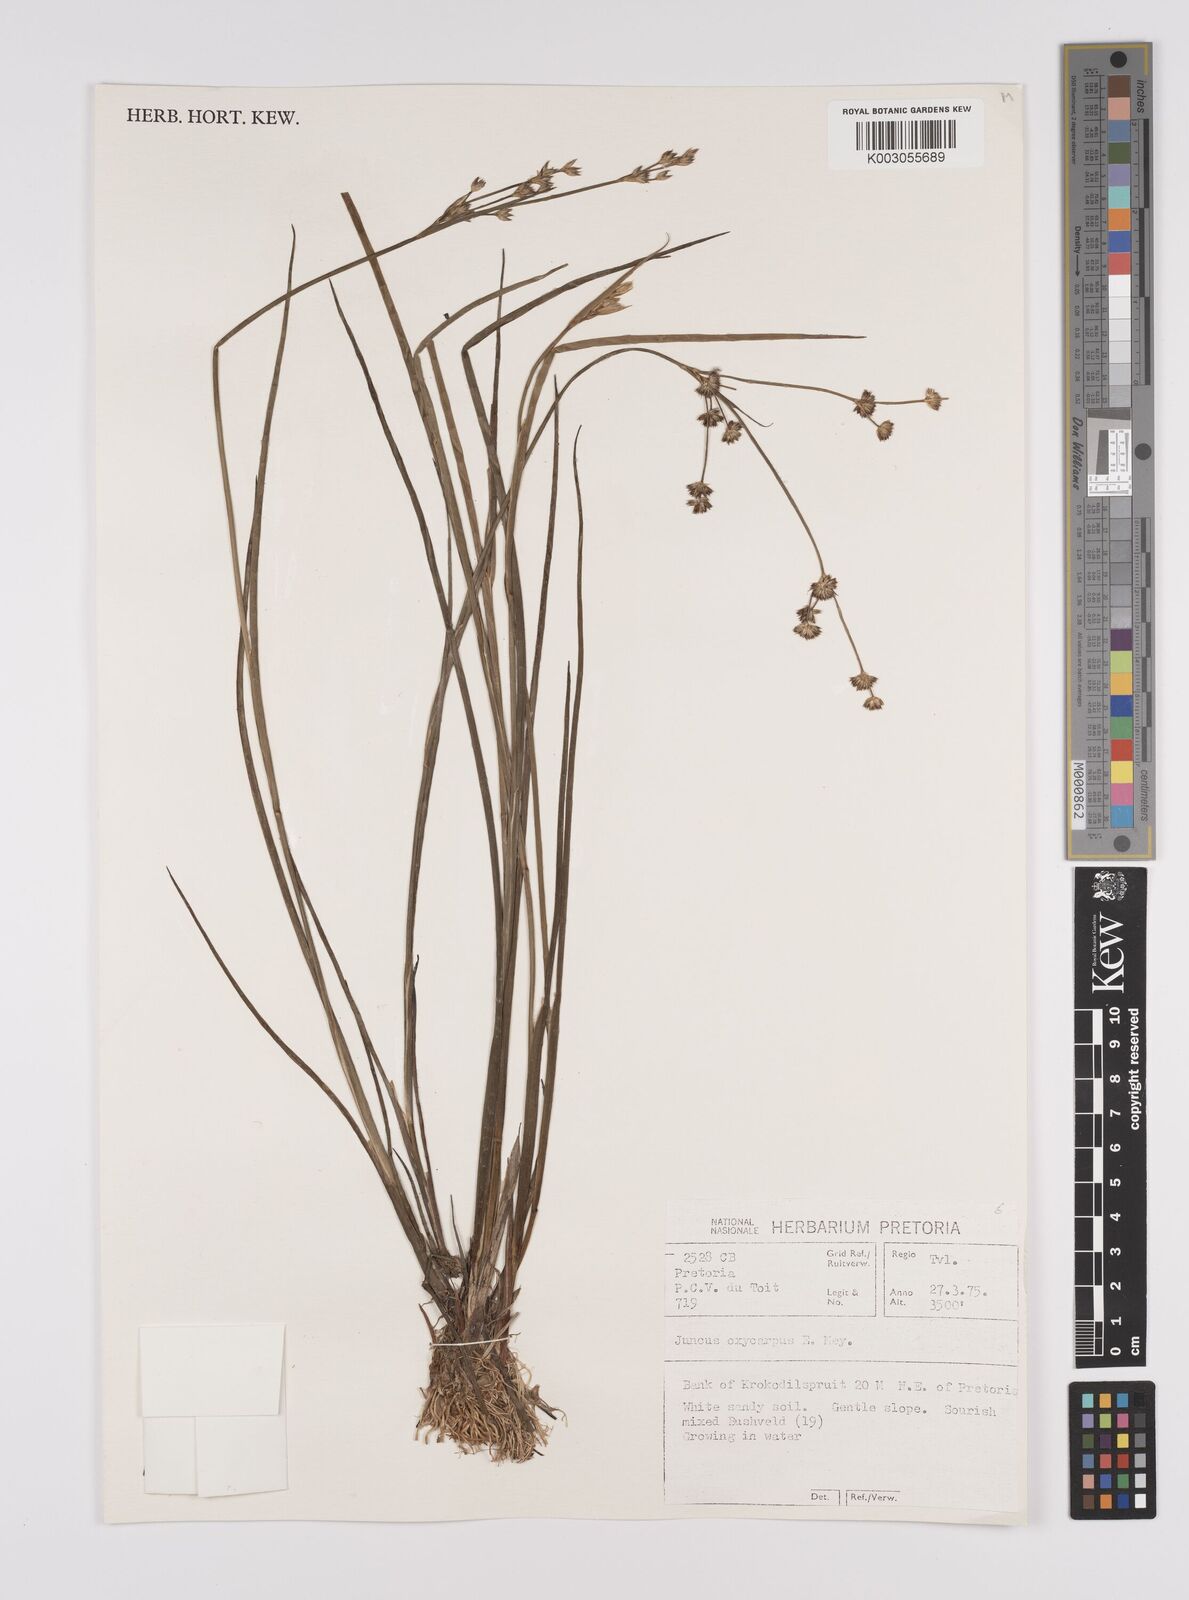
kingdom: Plantae
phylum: Tracheophyta
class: Liliopsida
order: Poales
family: Juncaceae
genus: Juncus
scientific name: Juncus oxycarpus
